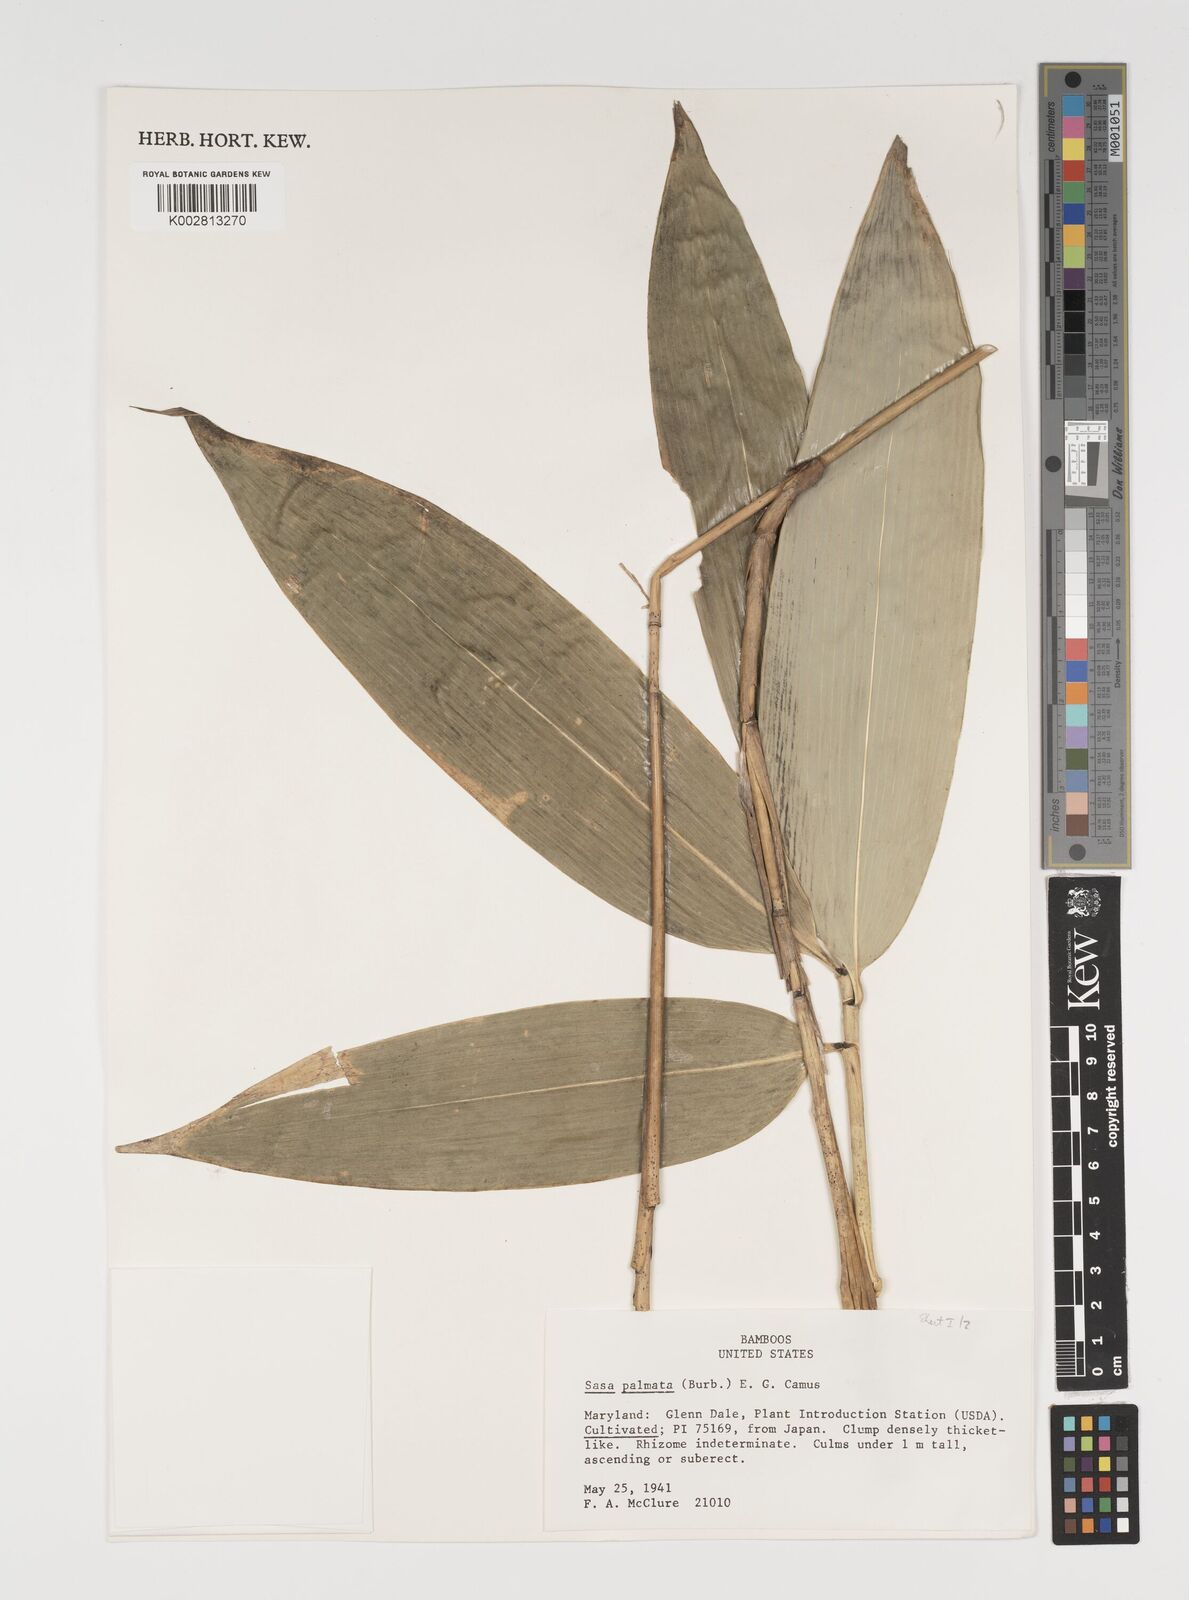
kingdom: Plantae
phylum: Tracheophyta
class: Liliopsida
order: Poales
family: Poaceae
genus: Sasa
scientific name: Sasa palmata
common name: Broad-leaved bamboo
